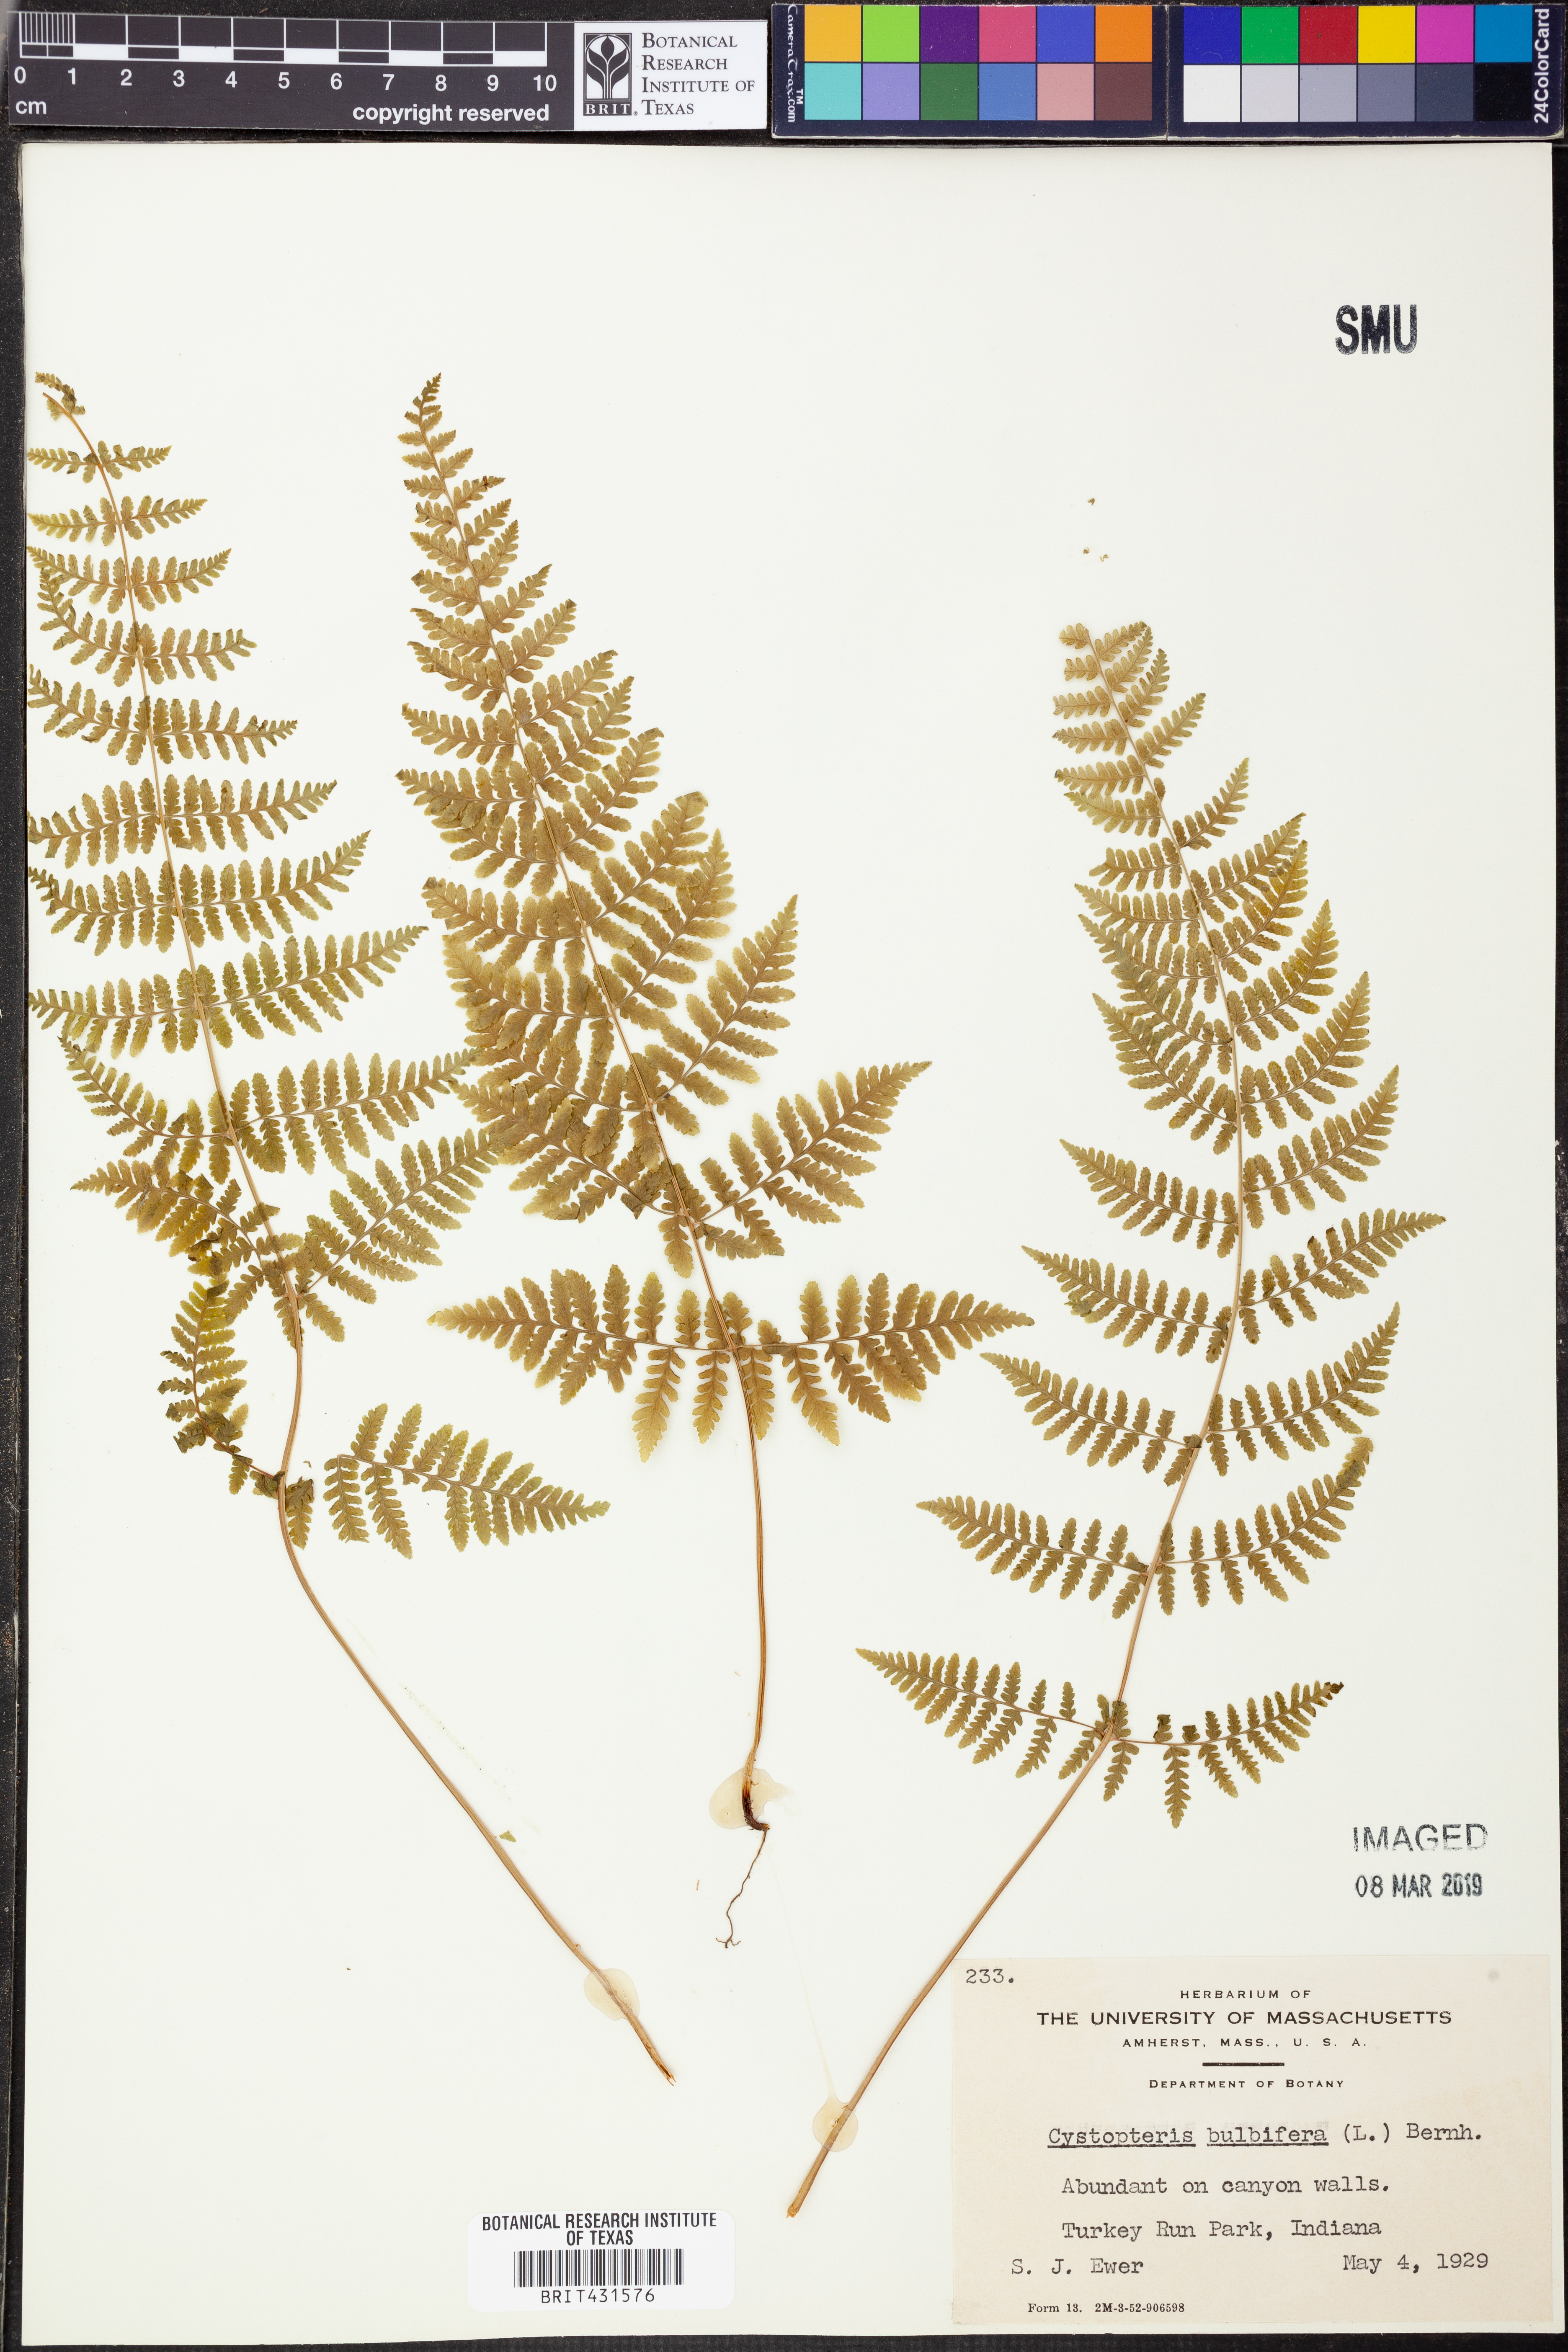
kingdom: Plantae
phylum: Tracheophyta
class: Polypodiopsida
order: Polypodiales
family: Cystopteridaceae
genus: Cystopteris
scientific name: Cystopteris bulbifera
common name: Bulblet bladder fern
